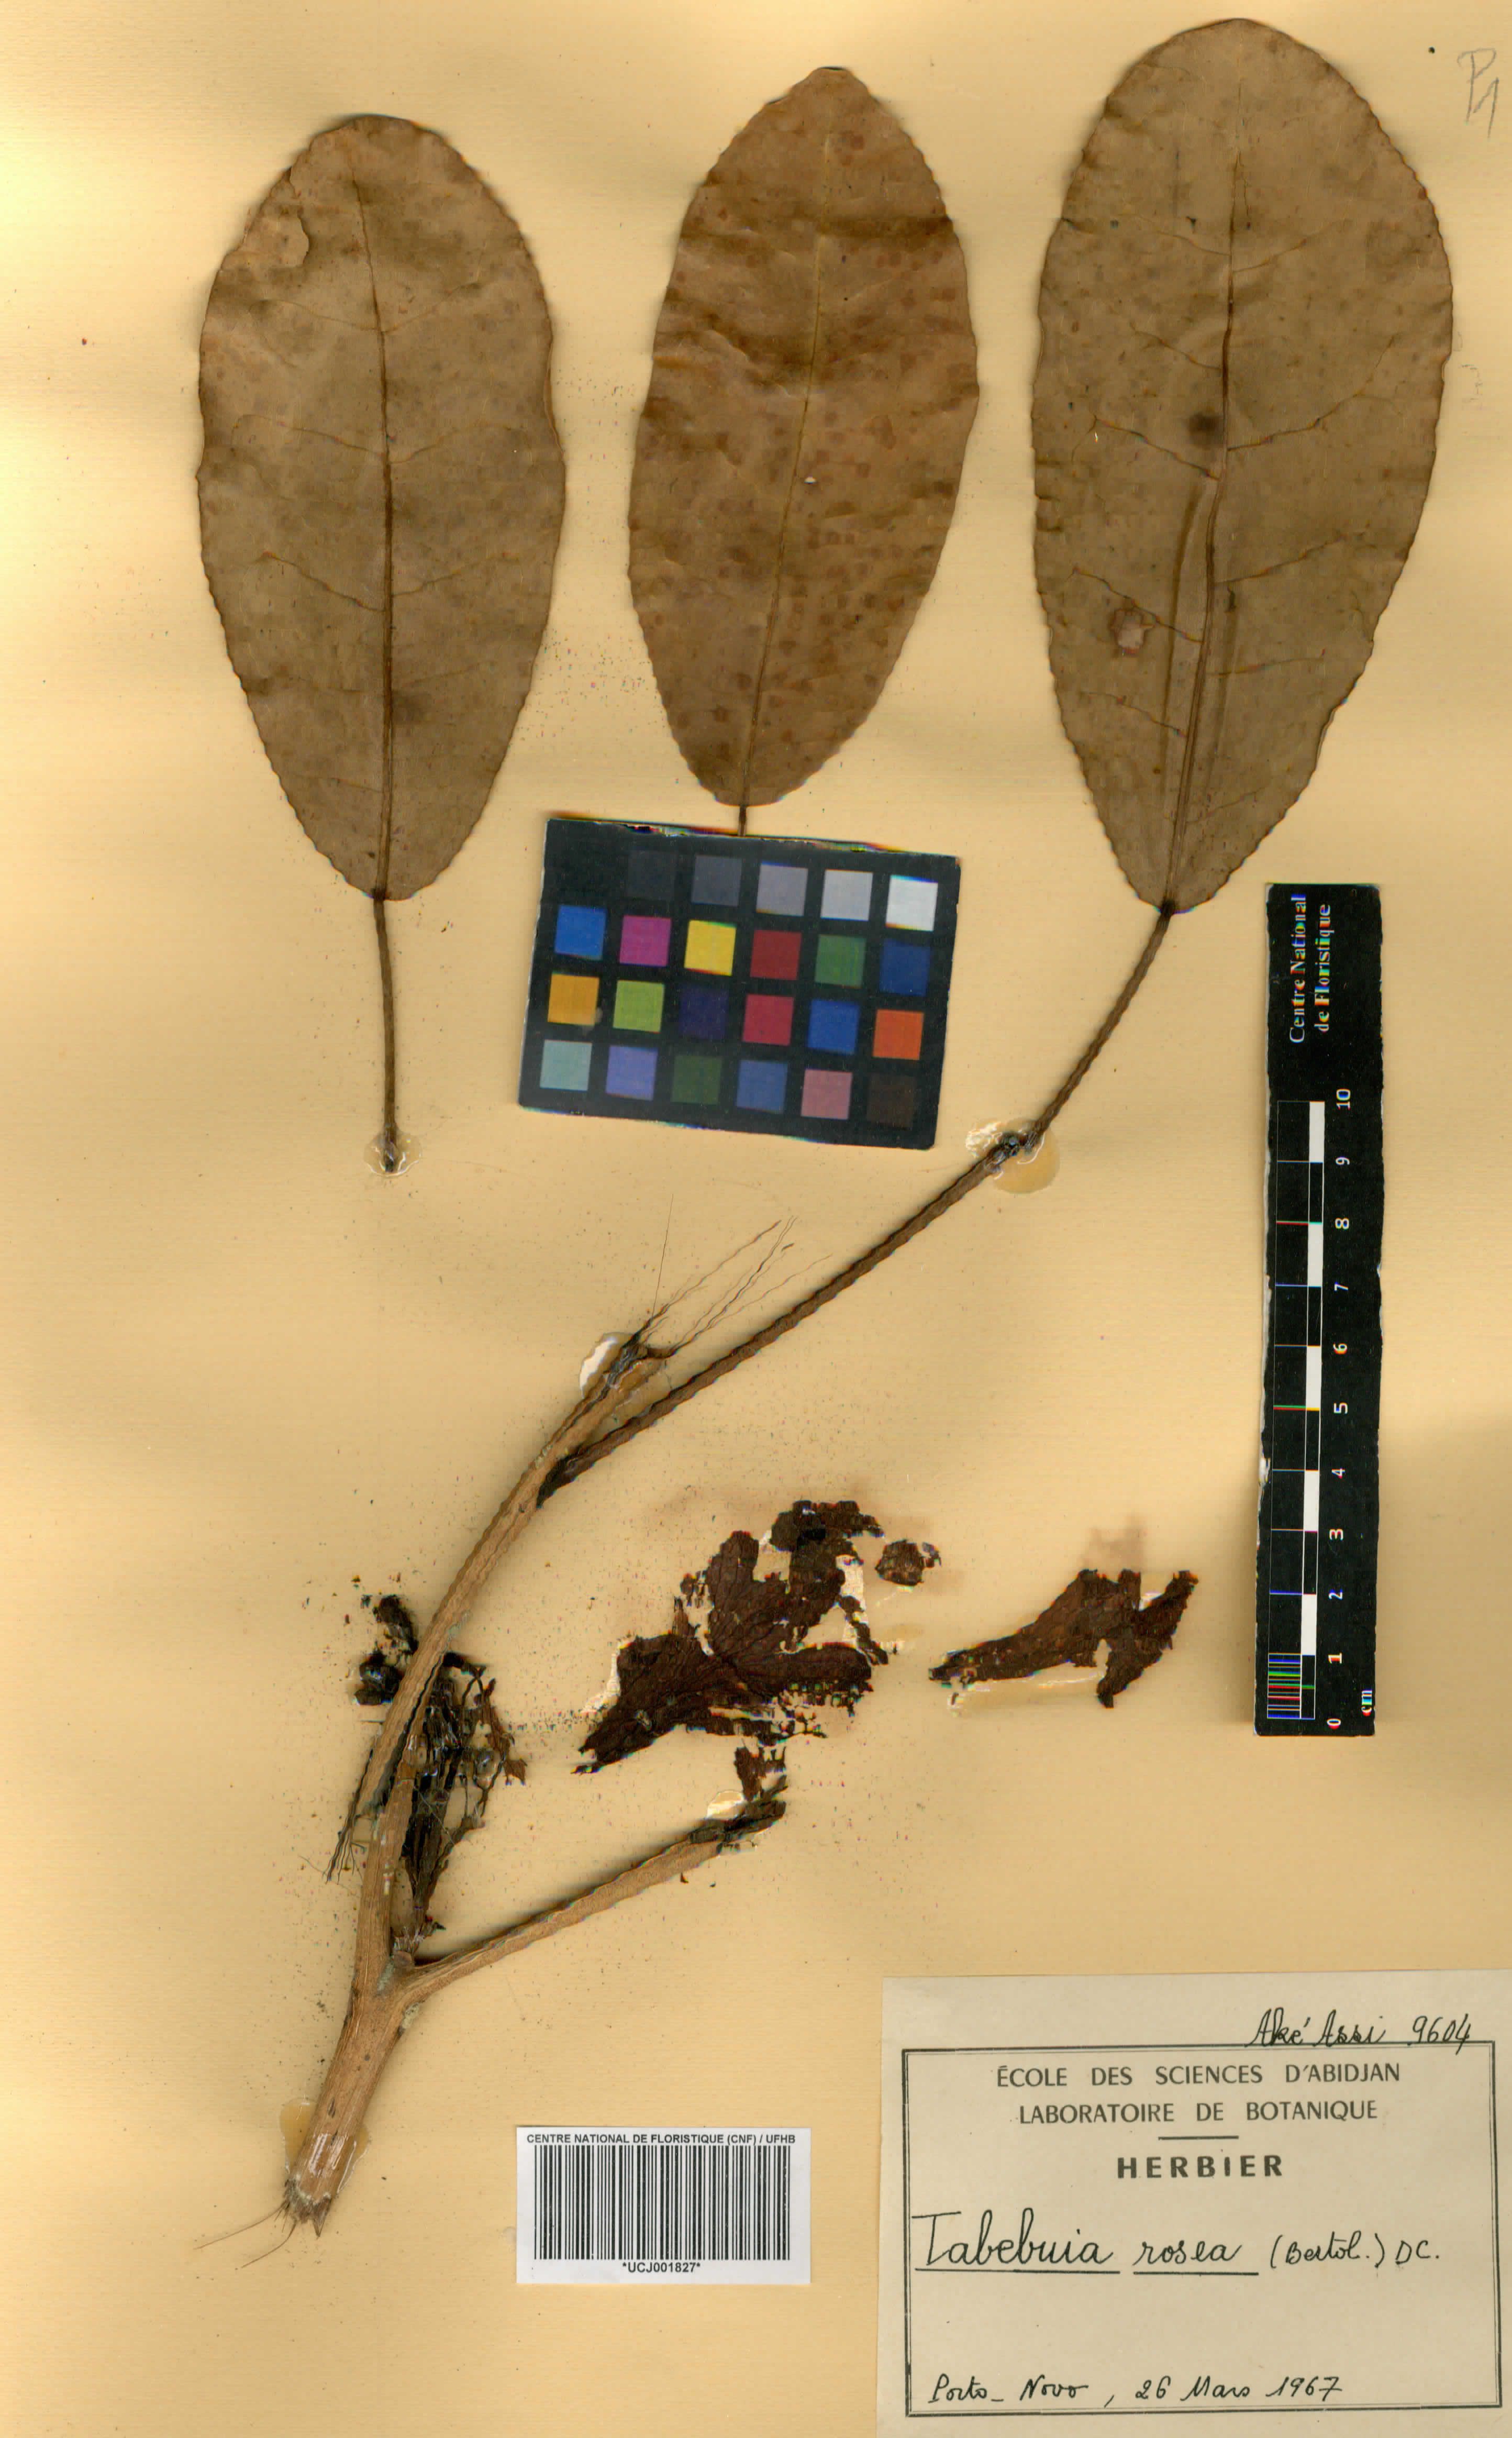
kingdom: Plantae
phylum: Tracheophyta
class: Magnoliopsida
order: Lamiales
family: Bignoniaceae
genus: Tabebuia
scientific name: Tabebuia rosea
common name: Pink poui
